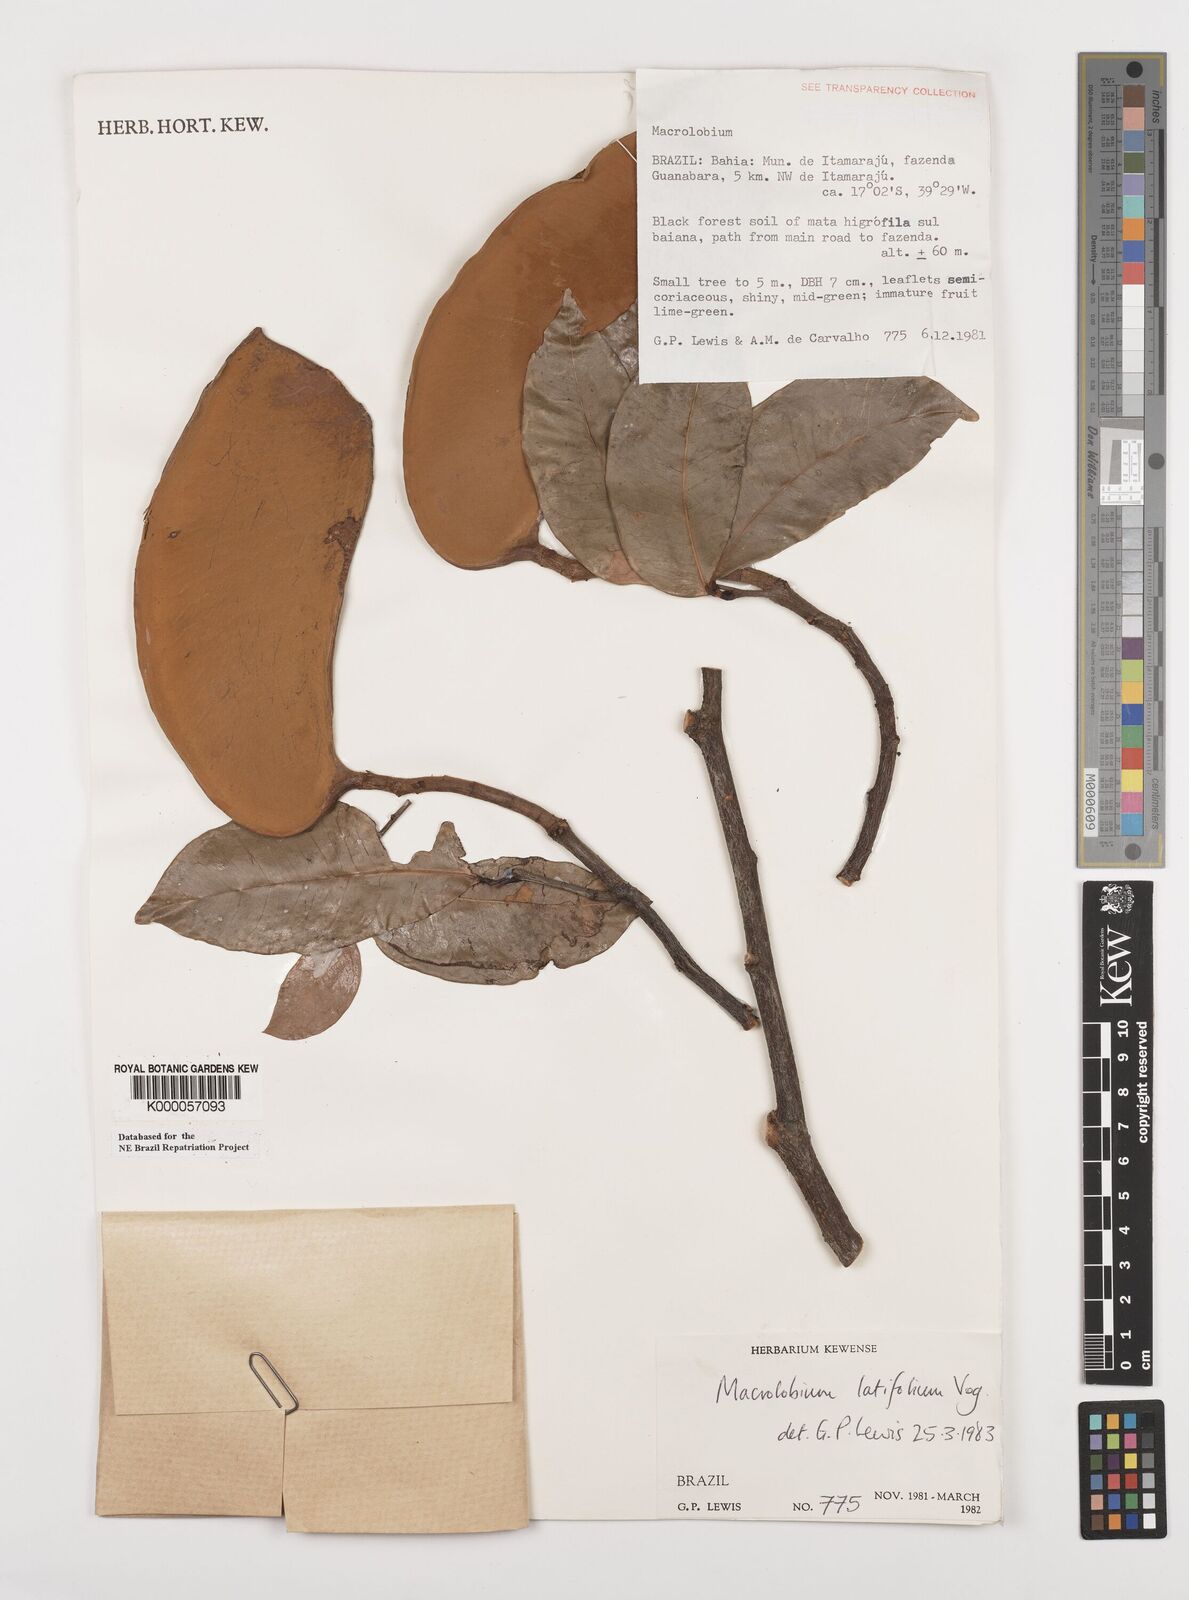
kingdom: Plantae
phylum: Tracheophyta
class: Magnoliopsida
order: Fabales
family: Fabaceae
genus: Macrolobium
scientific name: Macrolobium latifolium
